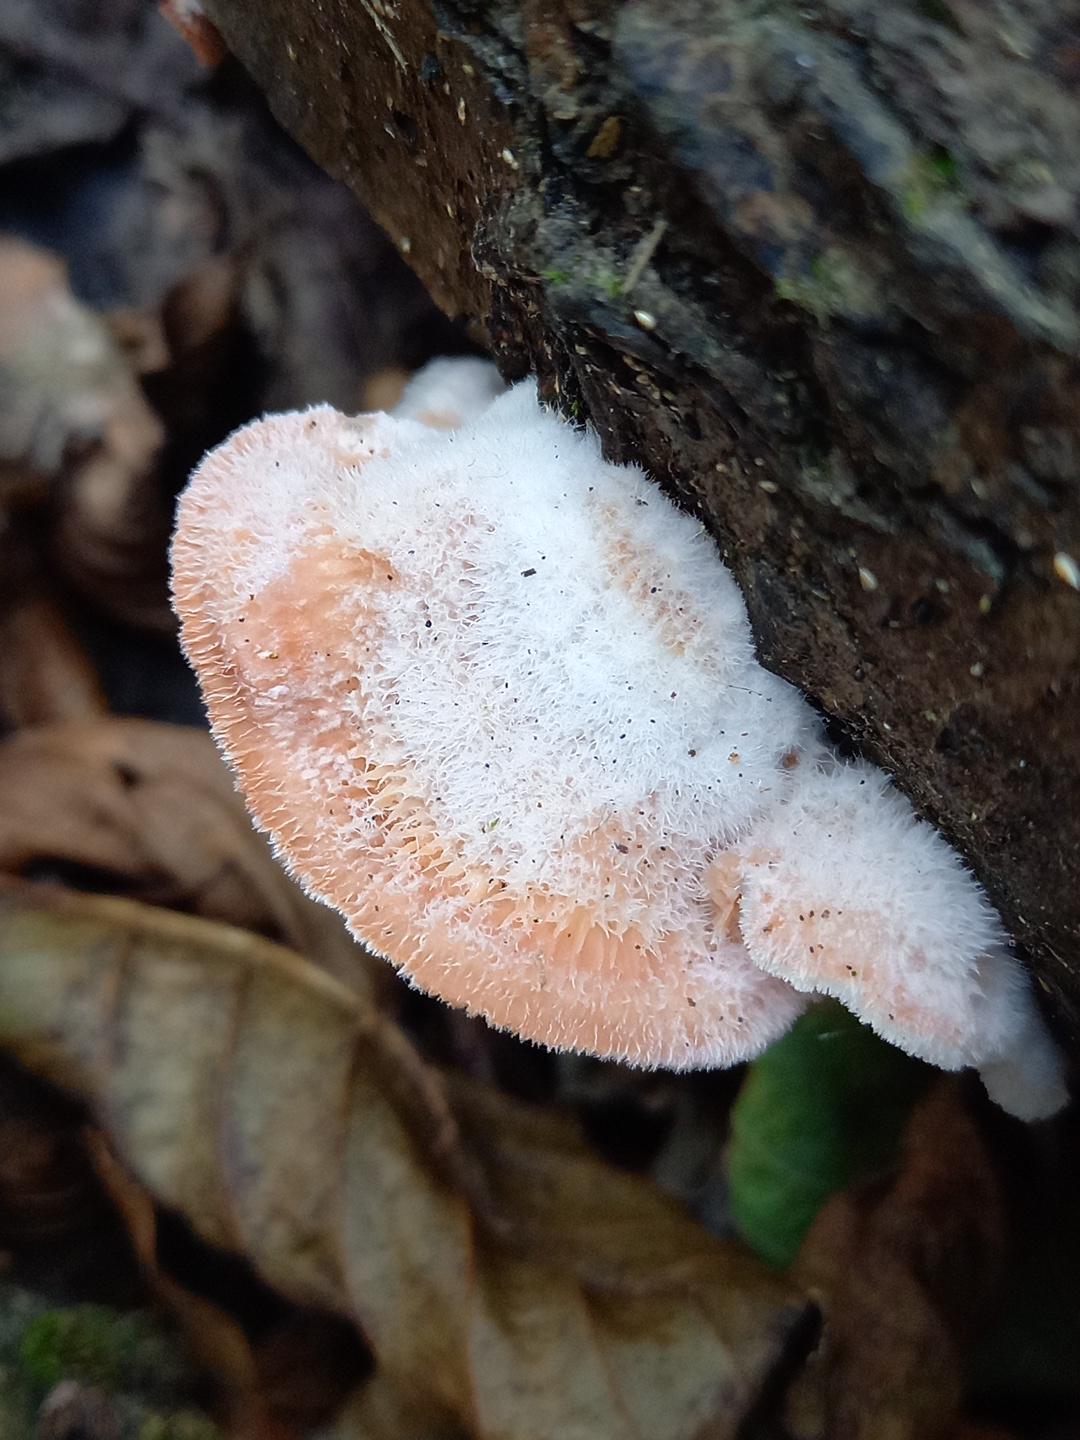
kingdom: Fungi
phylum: Basidiomycota
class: Agaricomycetes
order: Polyporales
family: Meruliaceae
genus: Phlebia
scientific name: Phlebia tremellosa
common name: bævrende åresvamp
